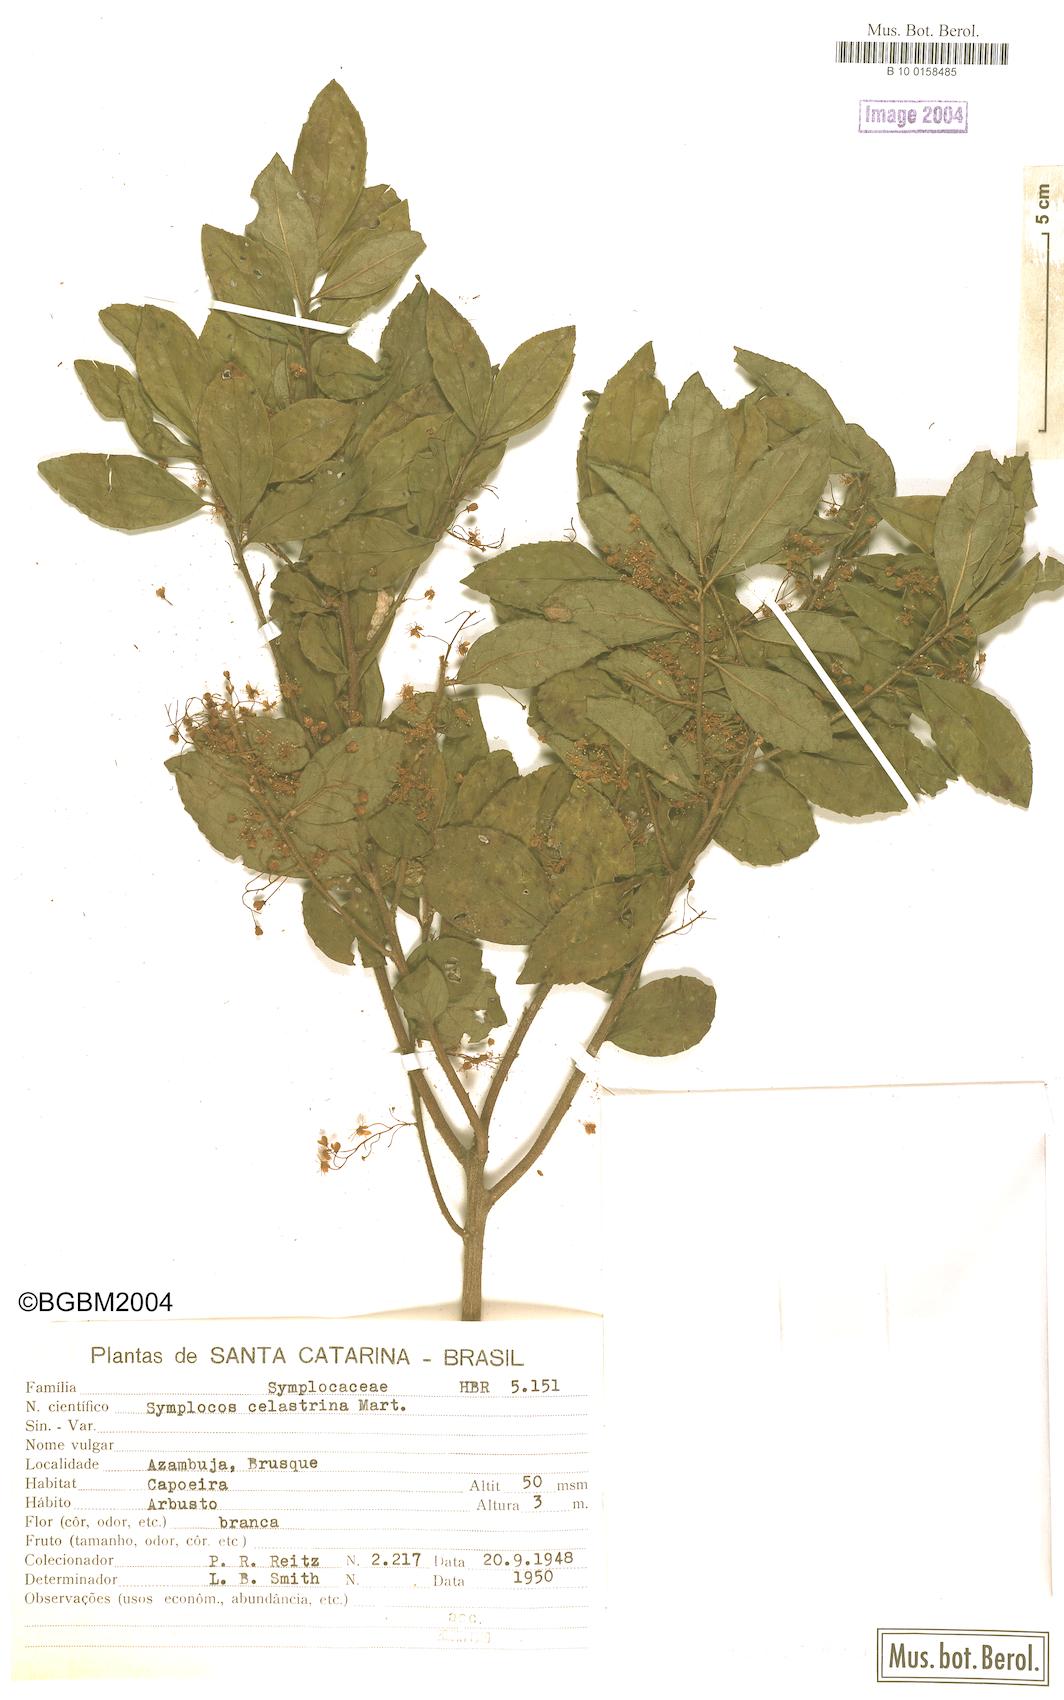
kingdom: Plantae
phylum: Tracheophyta
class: Magnoliopsida
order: Ericales
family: Symplocaceae
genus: Symplocos
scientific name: Symplocos pustulosa
